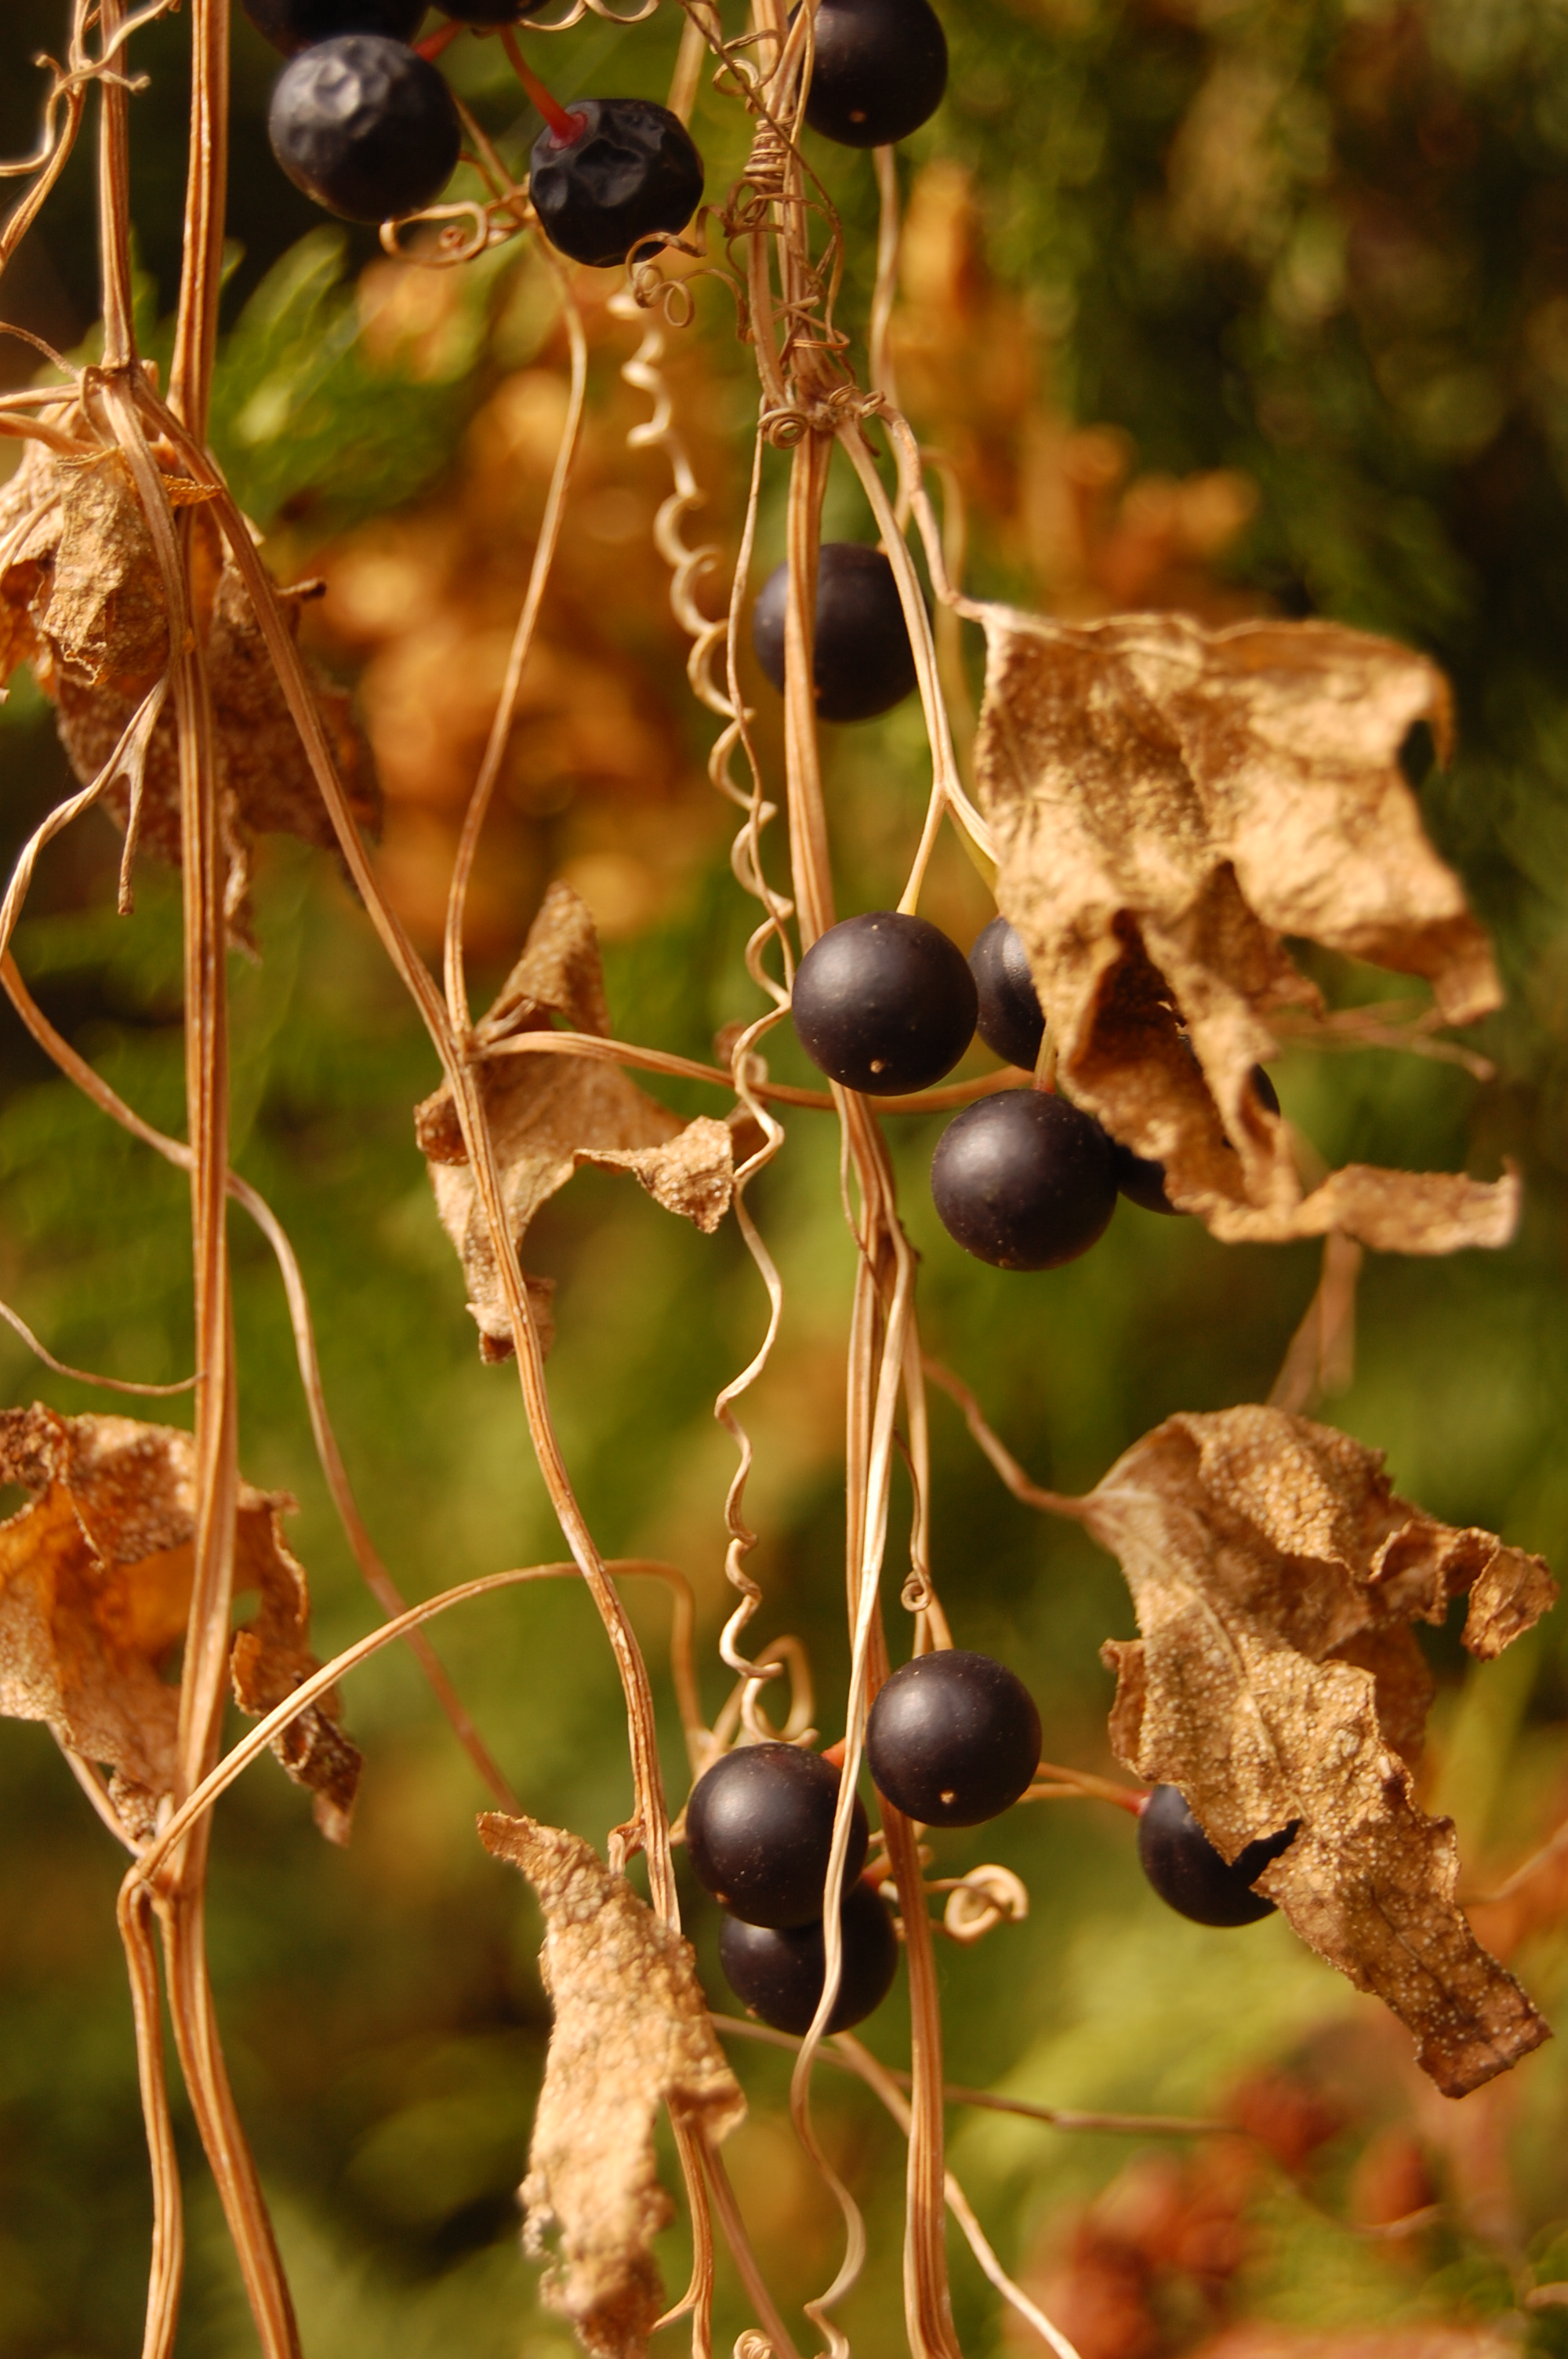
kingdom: Plantae
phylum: Tracheophyta
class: Magnoliopsida
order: Cucurbitales
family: Cucurbitaceae
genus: Bryonia
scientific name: Bryonia alba
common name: White bryony
